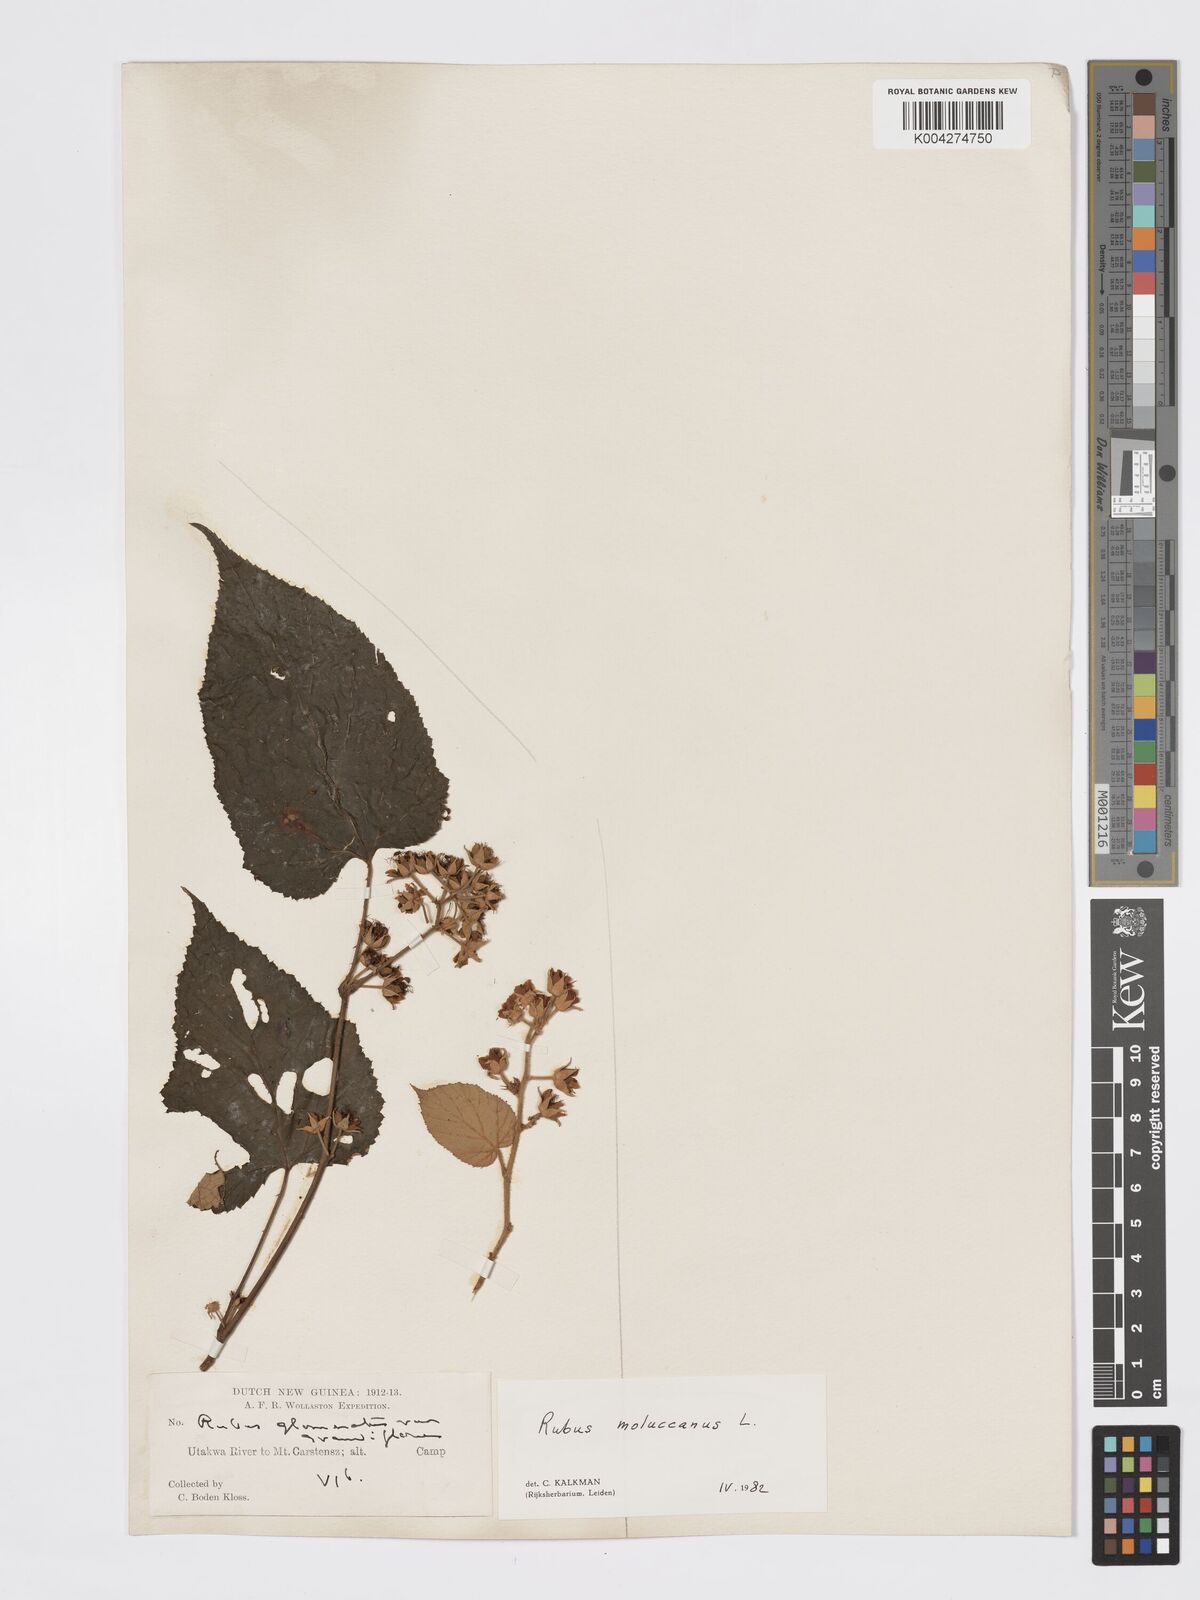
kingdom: Plantae
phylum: Tracheophyta
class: Magnoliopsida
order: Rosales
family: Rosaceae
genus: Rubus
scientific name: Rubus moluccanus
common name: Wild raspberry
